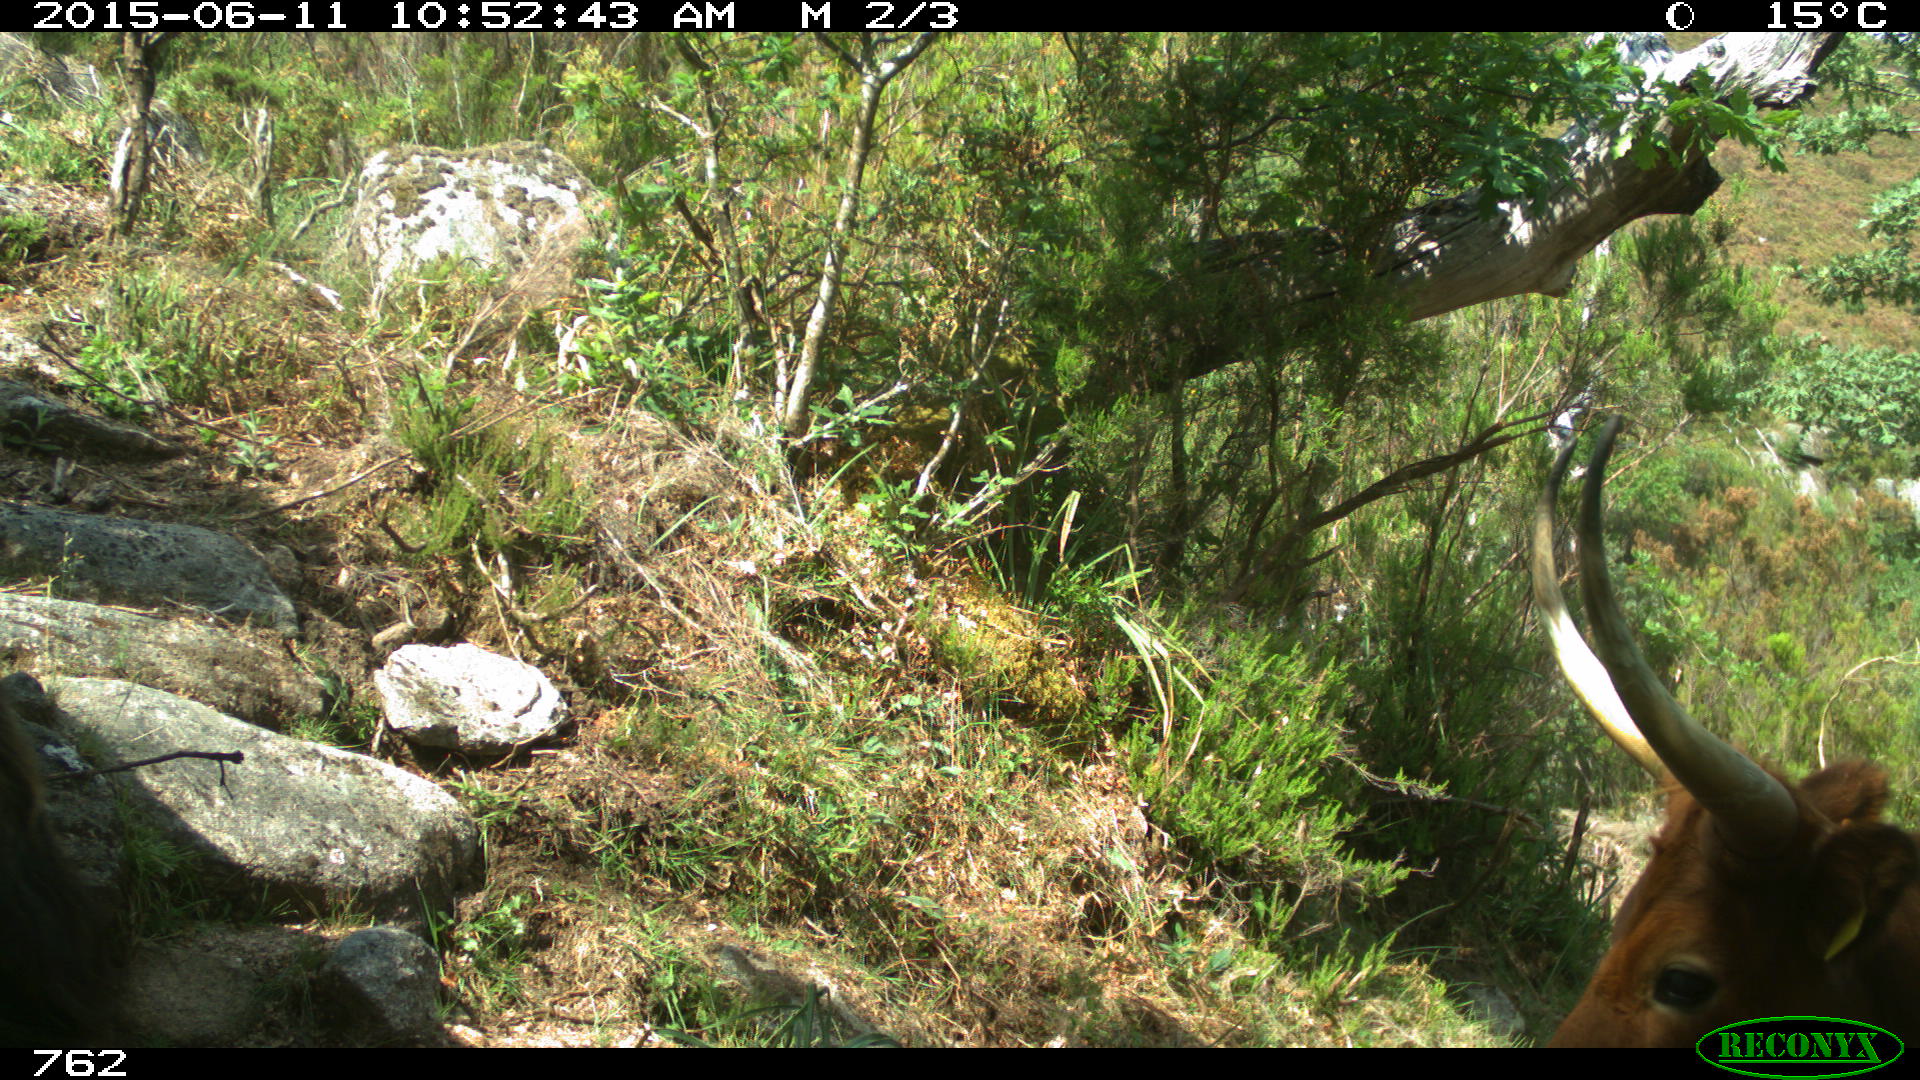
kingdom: Animalia
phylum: Chordata
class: Mammalia
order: Artiodactyla
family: Bovidae
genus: Bos
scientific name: Bos taurus
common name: Domesticated cattle
